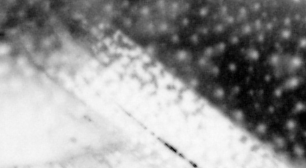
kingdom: Animalia
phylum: Chordata
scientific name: Chordata
